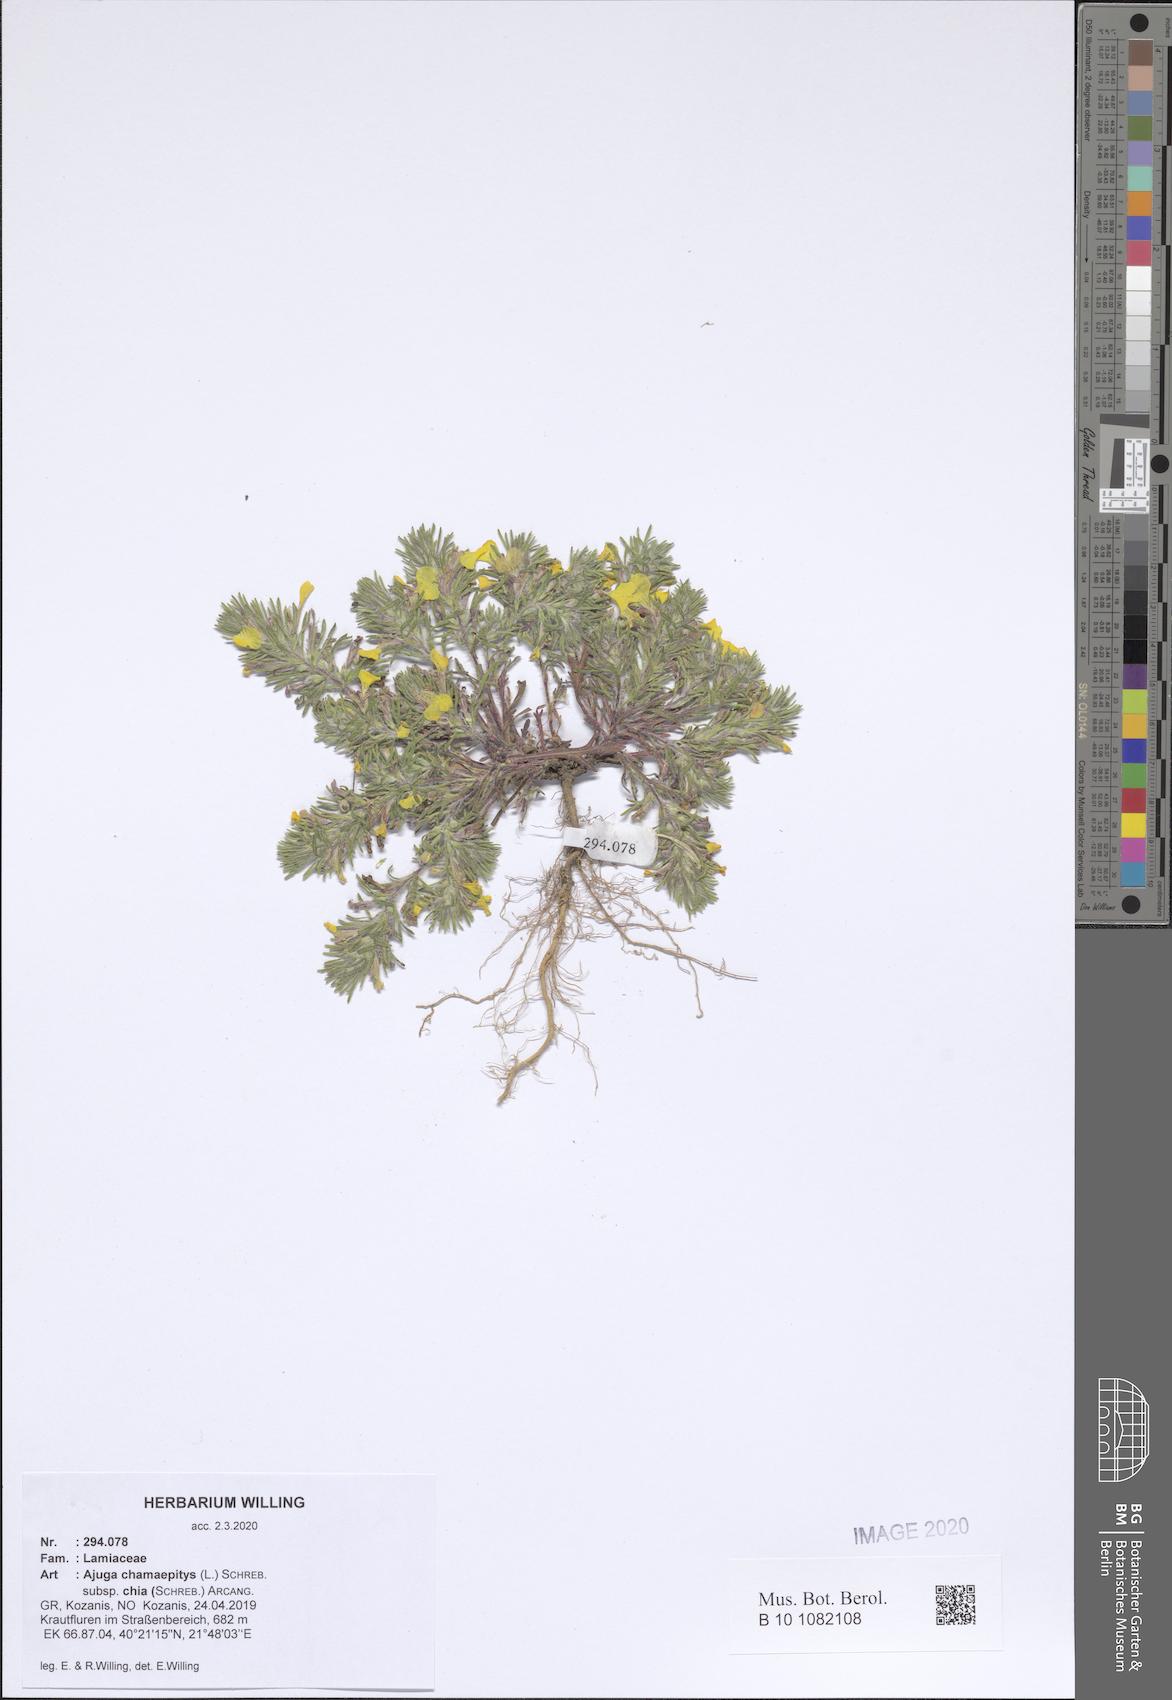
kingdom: Plantae
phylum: Tracheophyta
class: Magnoliopsida
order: Lamiales
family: Lamiaceae
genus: Ajuga
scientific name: Ajuga chamaepitys
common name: Ground-pine
